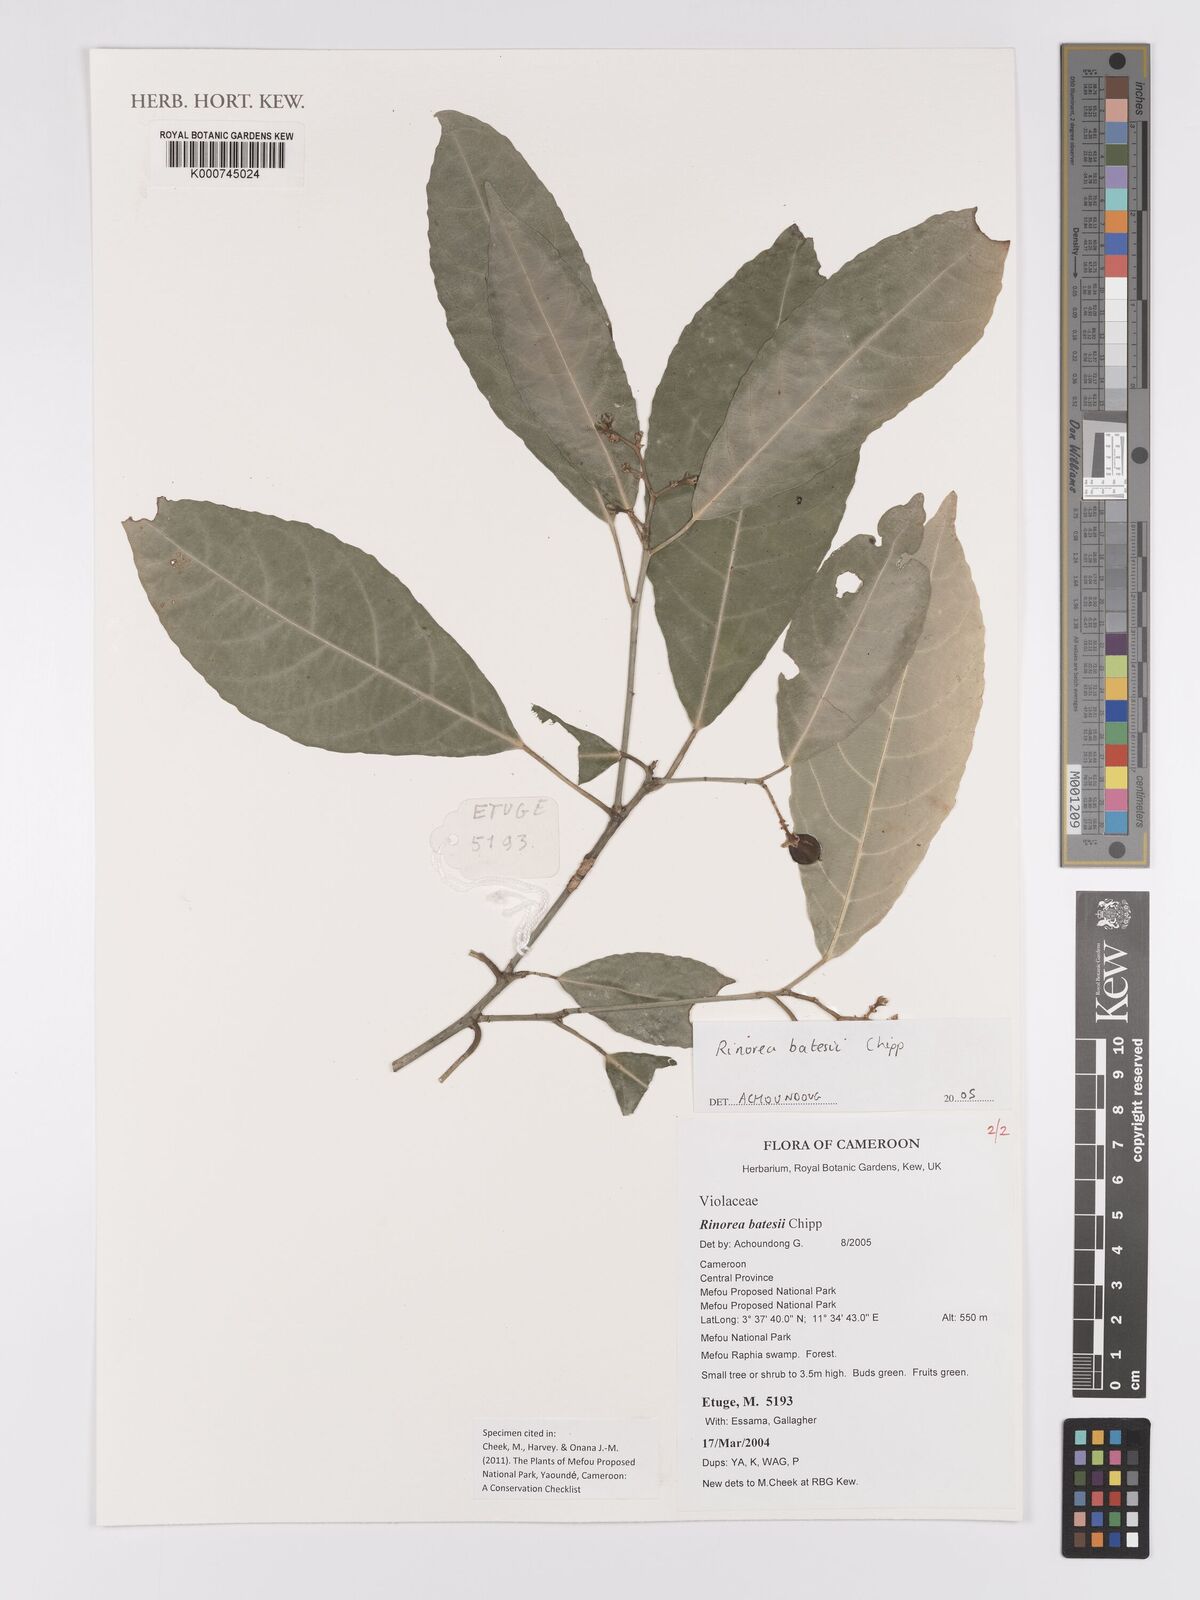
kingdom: Plantae
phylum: Tracheophyta
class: Magnoliopsida
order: Malpighiales
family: Violaceae
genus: Rinorea
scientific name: Rinorea batesii
